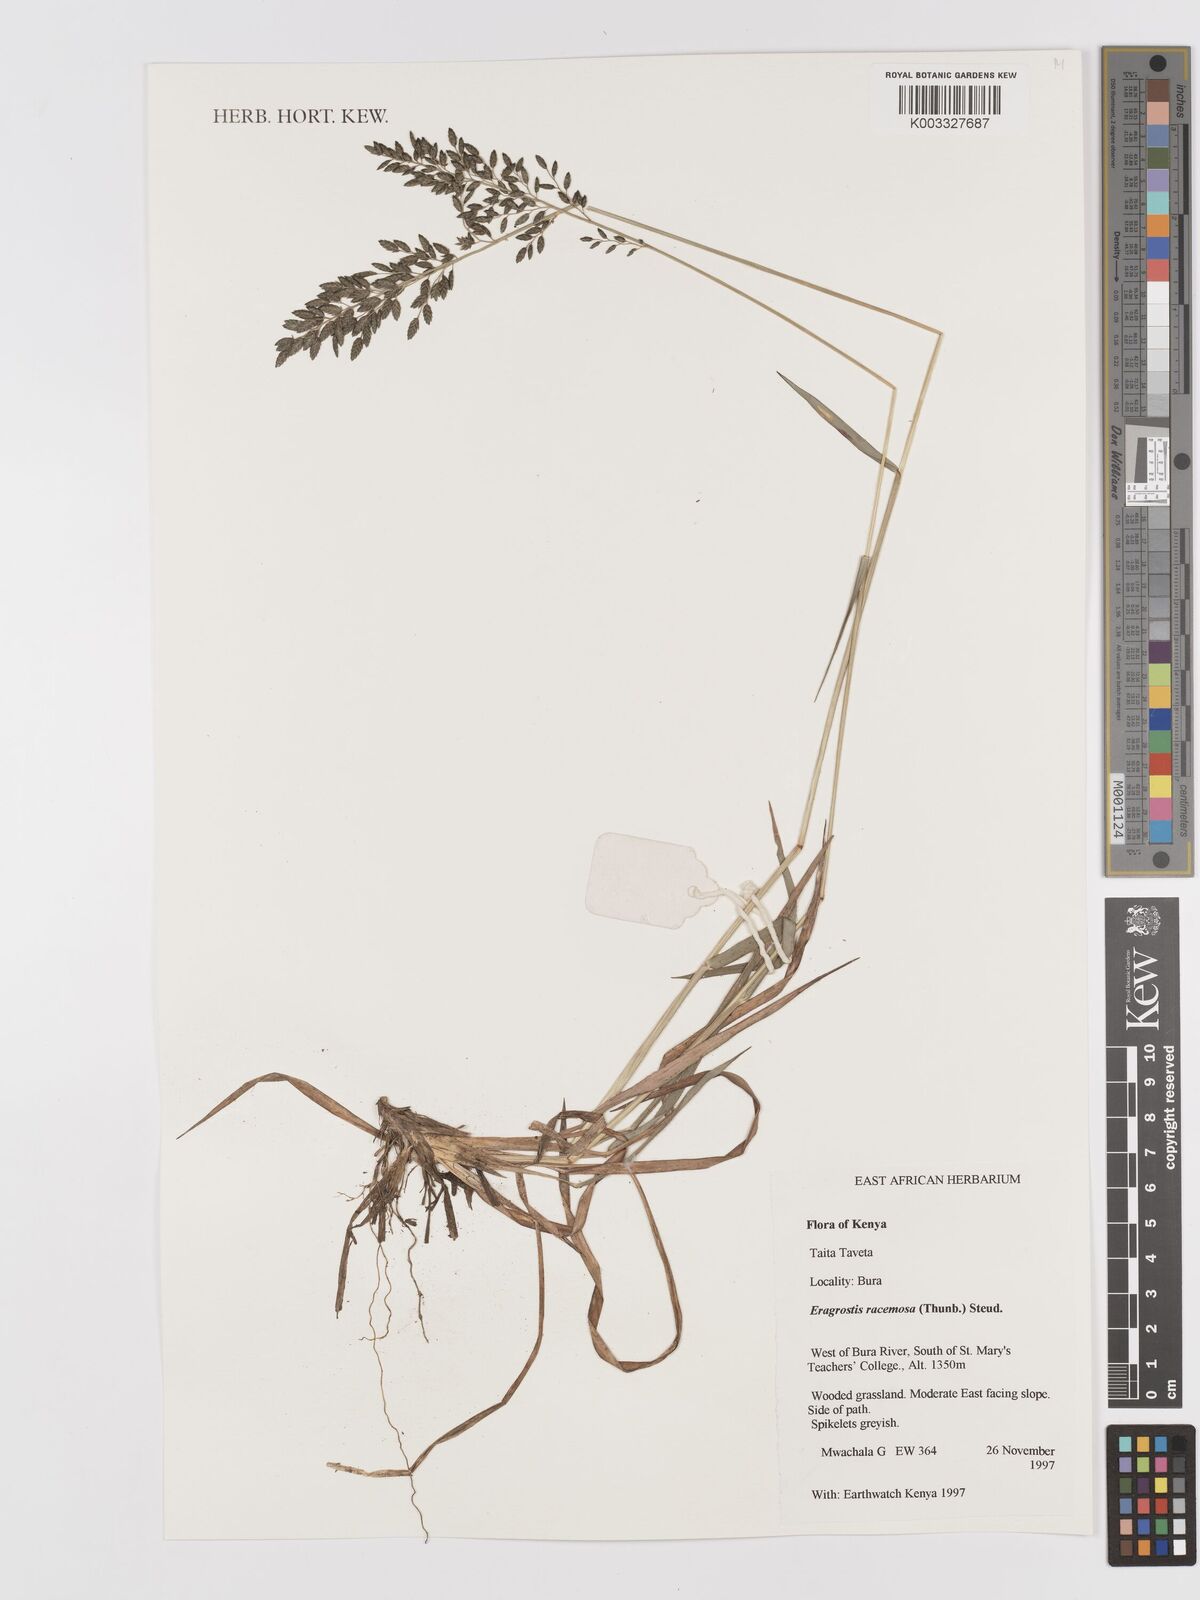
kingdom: Plantae
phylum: Tracheophyta
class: Liliopsida
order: Poales
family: Poaceae
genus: Eragrostis
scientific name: Eragrostis racemosa
